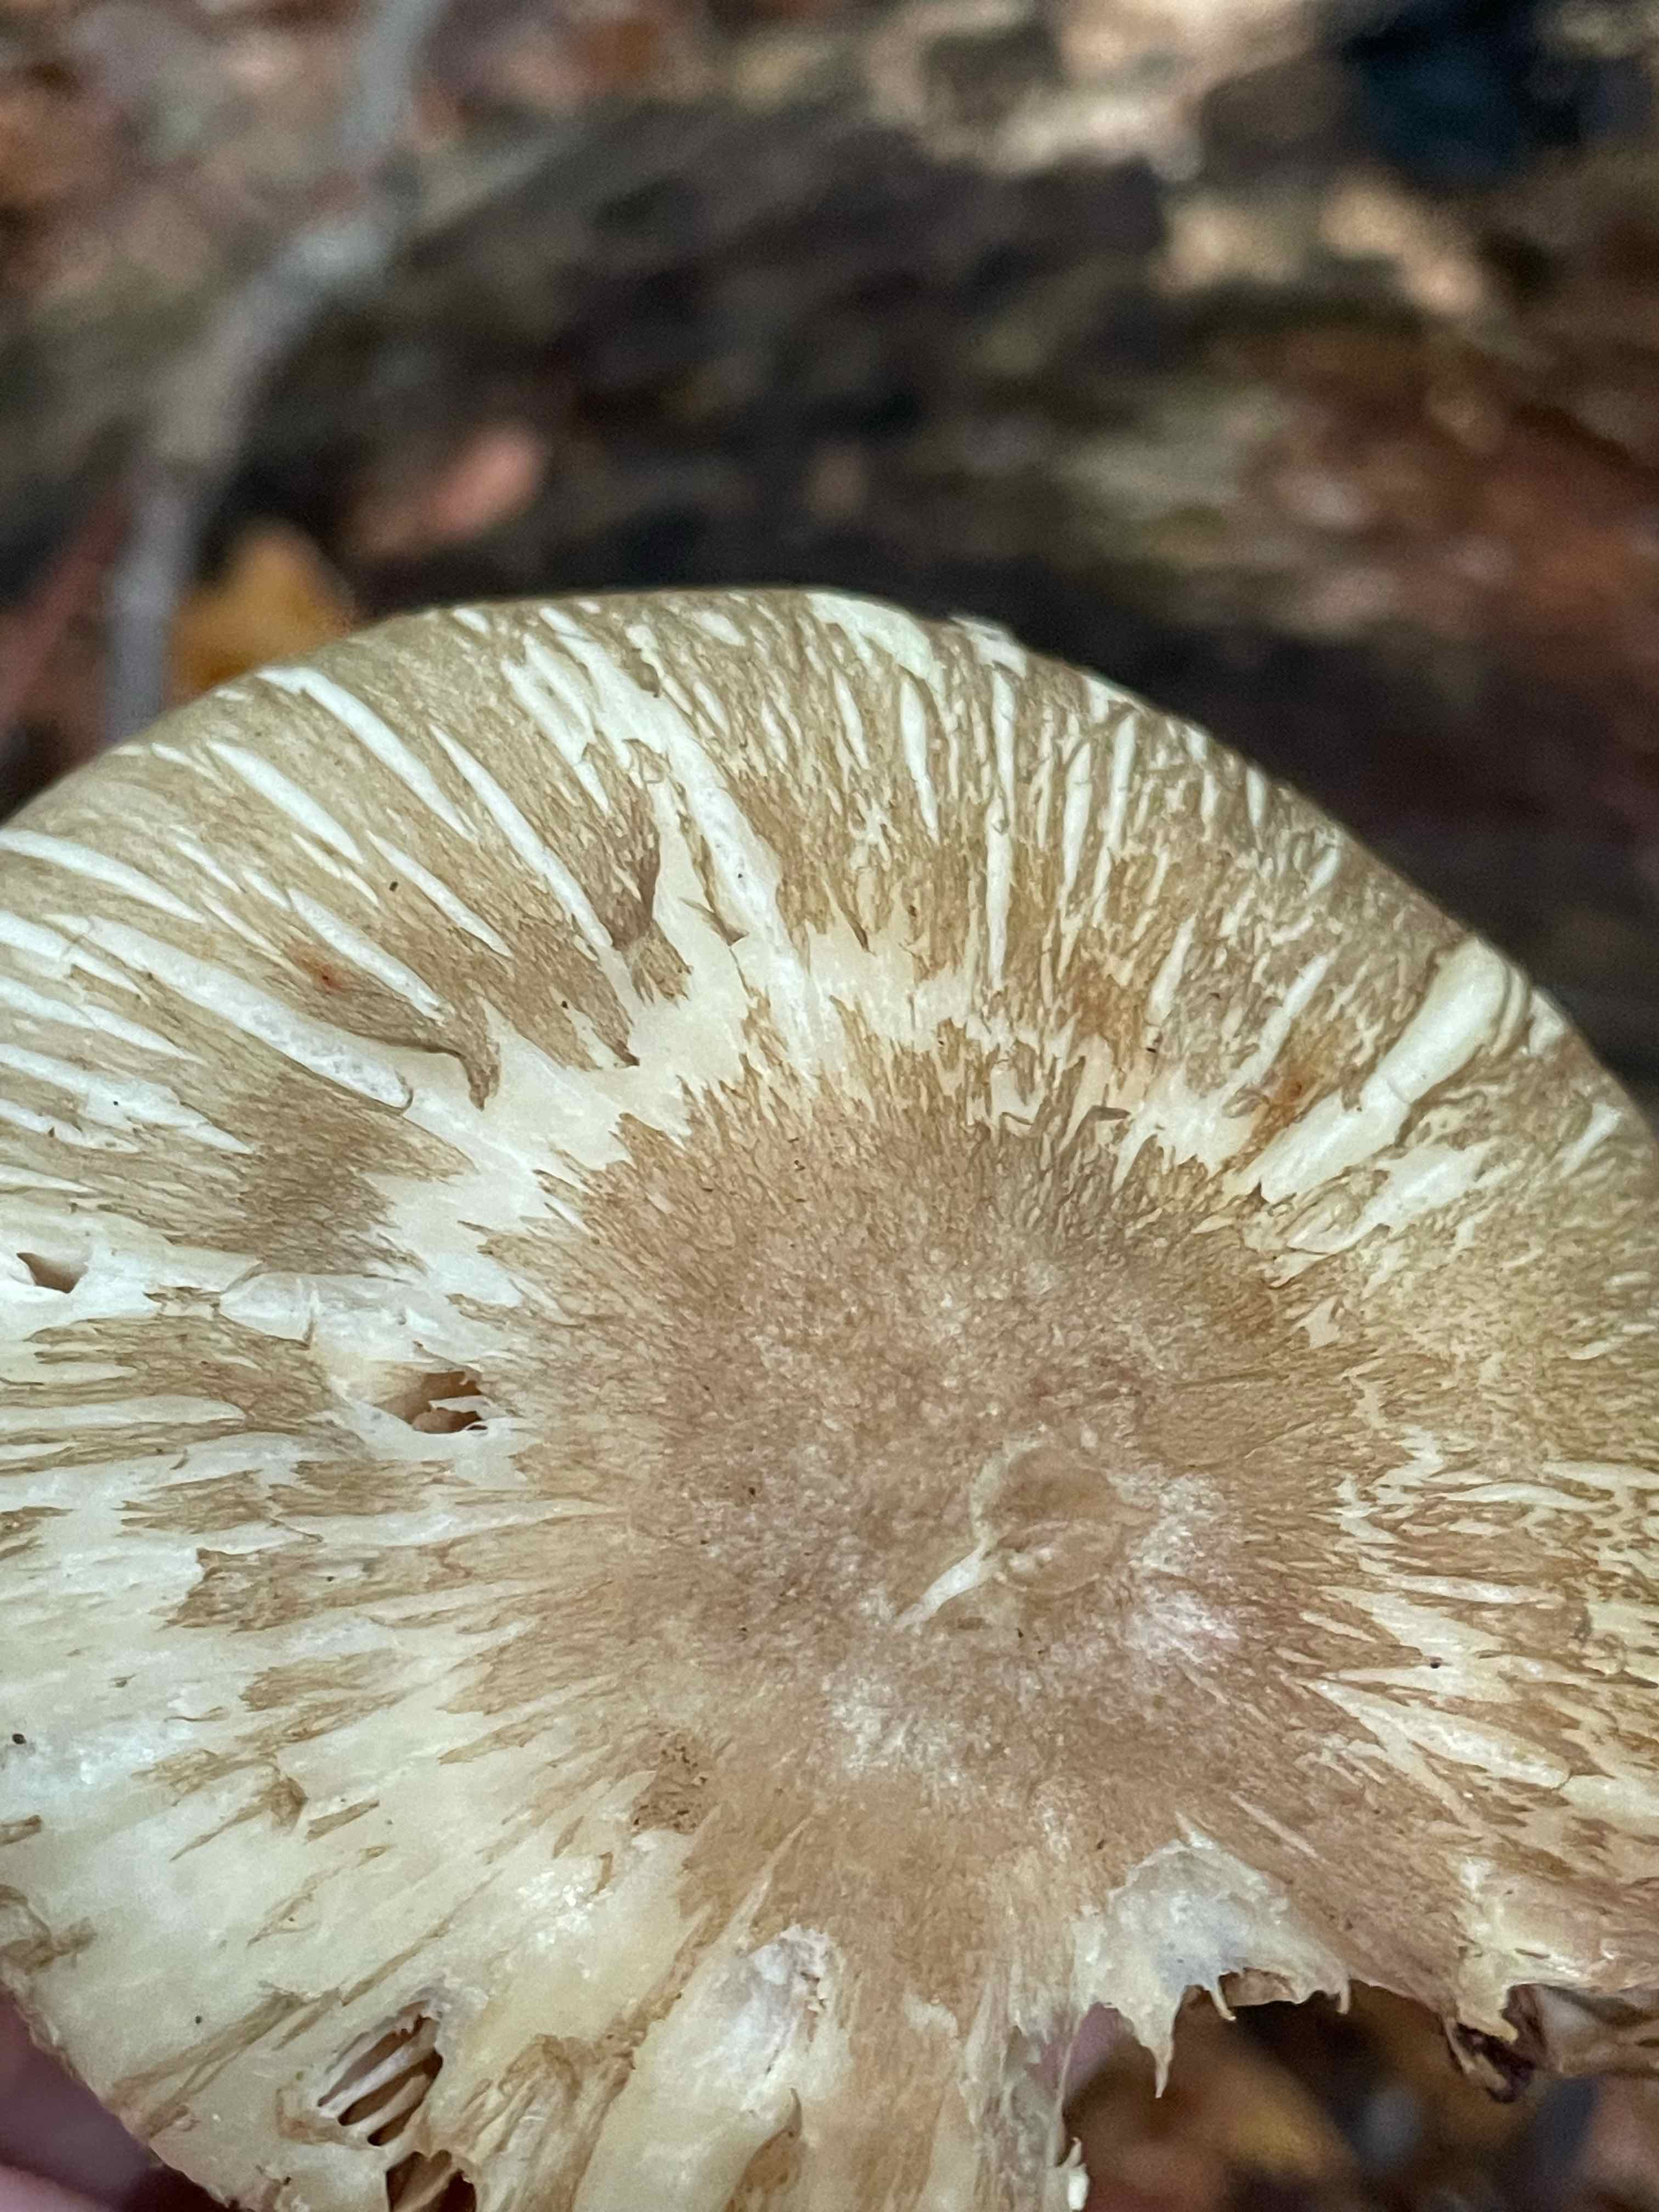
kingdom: Fungi
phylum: Basidiomycota
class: Agaricomycetes
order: Agaricales
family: Tricholomataceae
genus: Megacollybia
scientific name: Megacollybia platyphylla
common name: bredbladet væbnerhat
